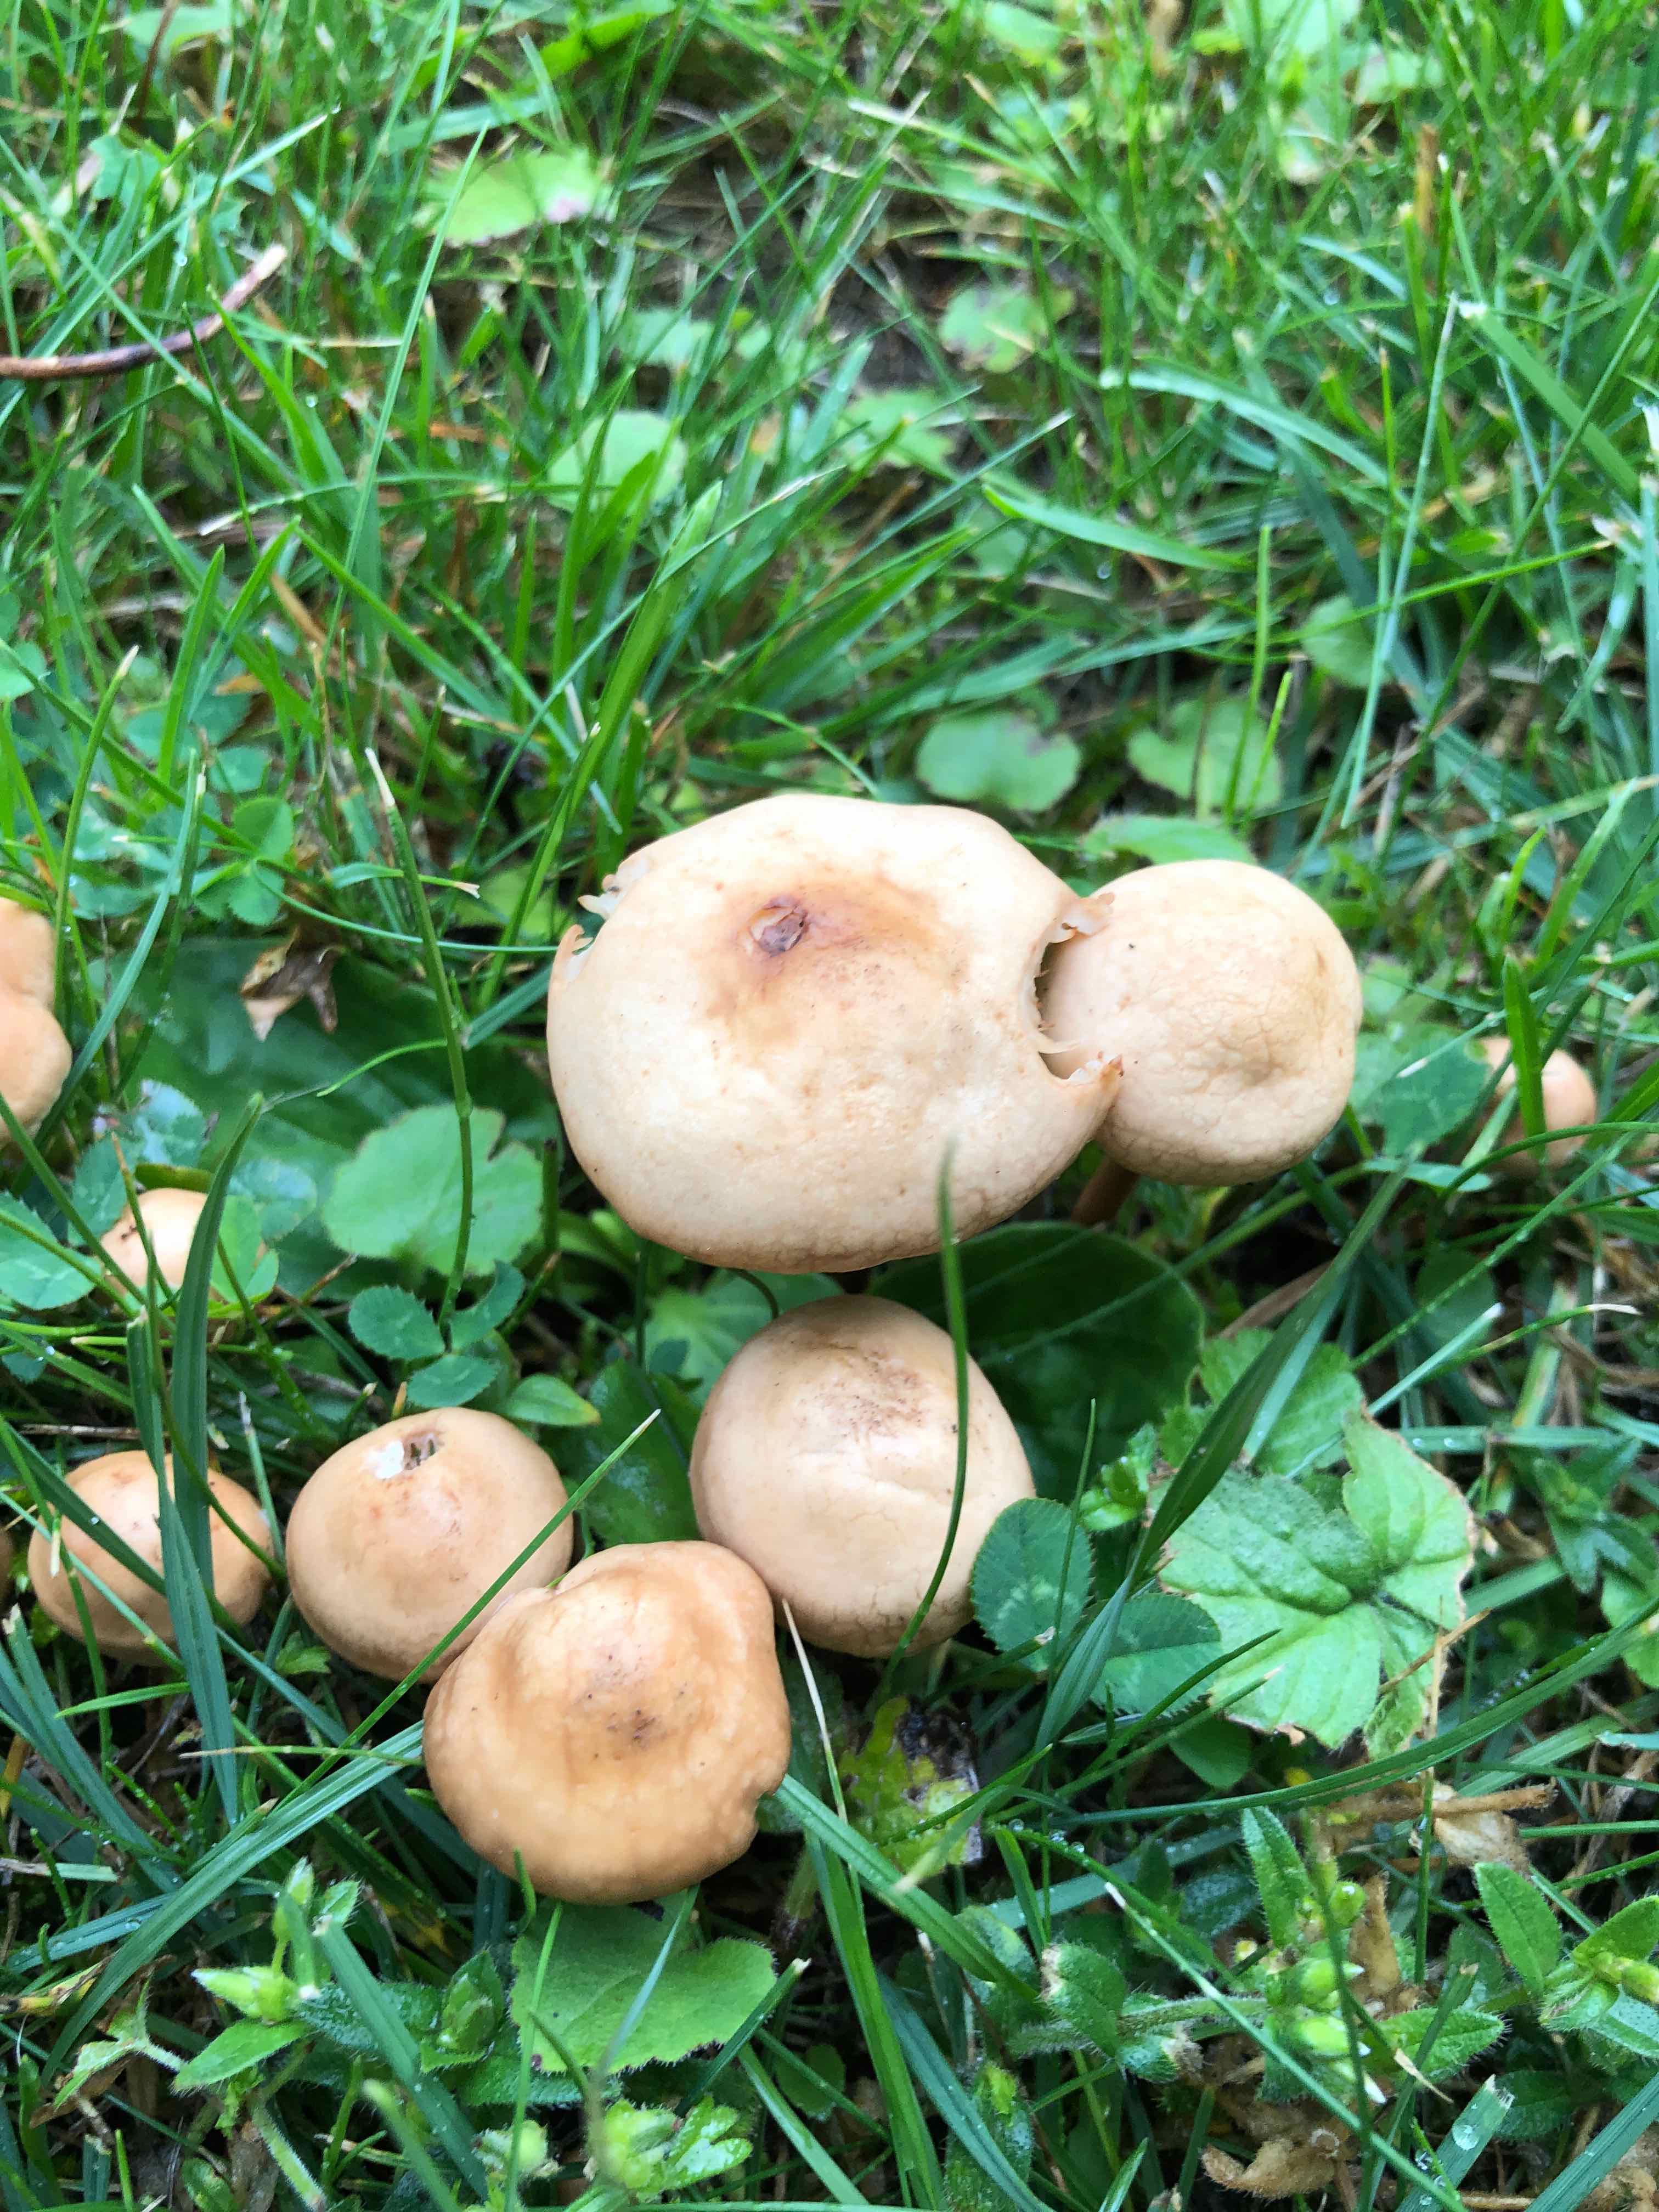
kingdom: Fungi
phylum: Basidiomycota
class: Agaricomycetes
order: Agaricales
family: Marasmiaceae
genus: Marasmius
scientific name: Marasmius oreades
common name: elledans-bruskhat
